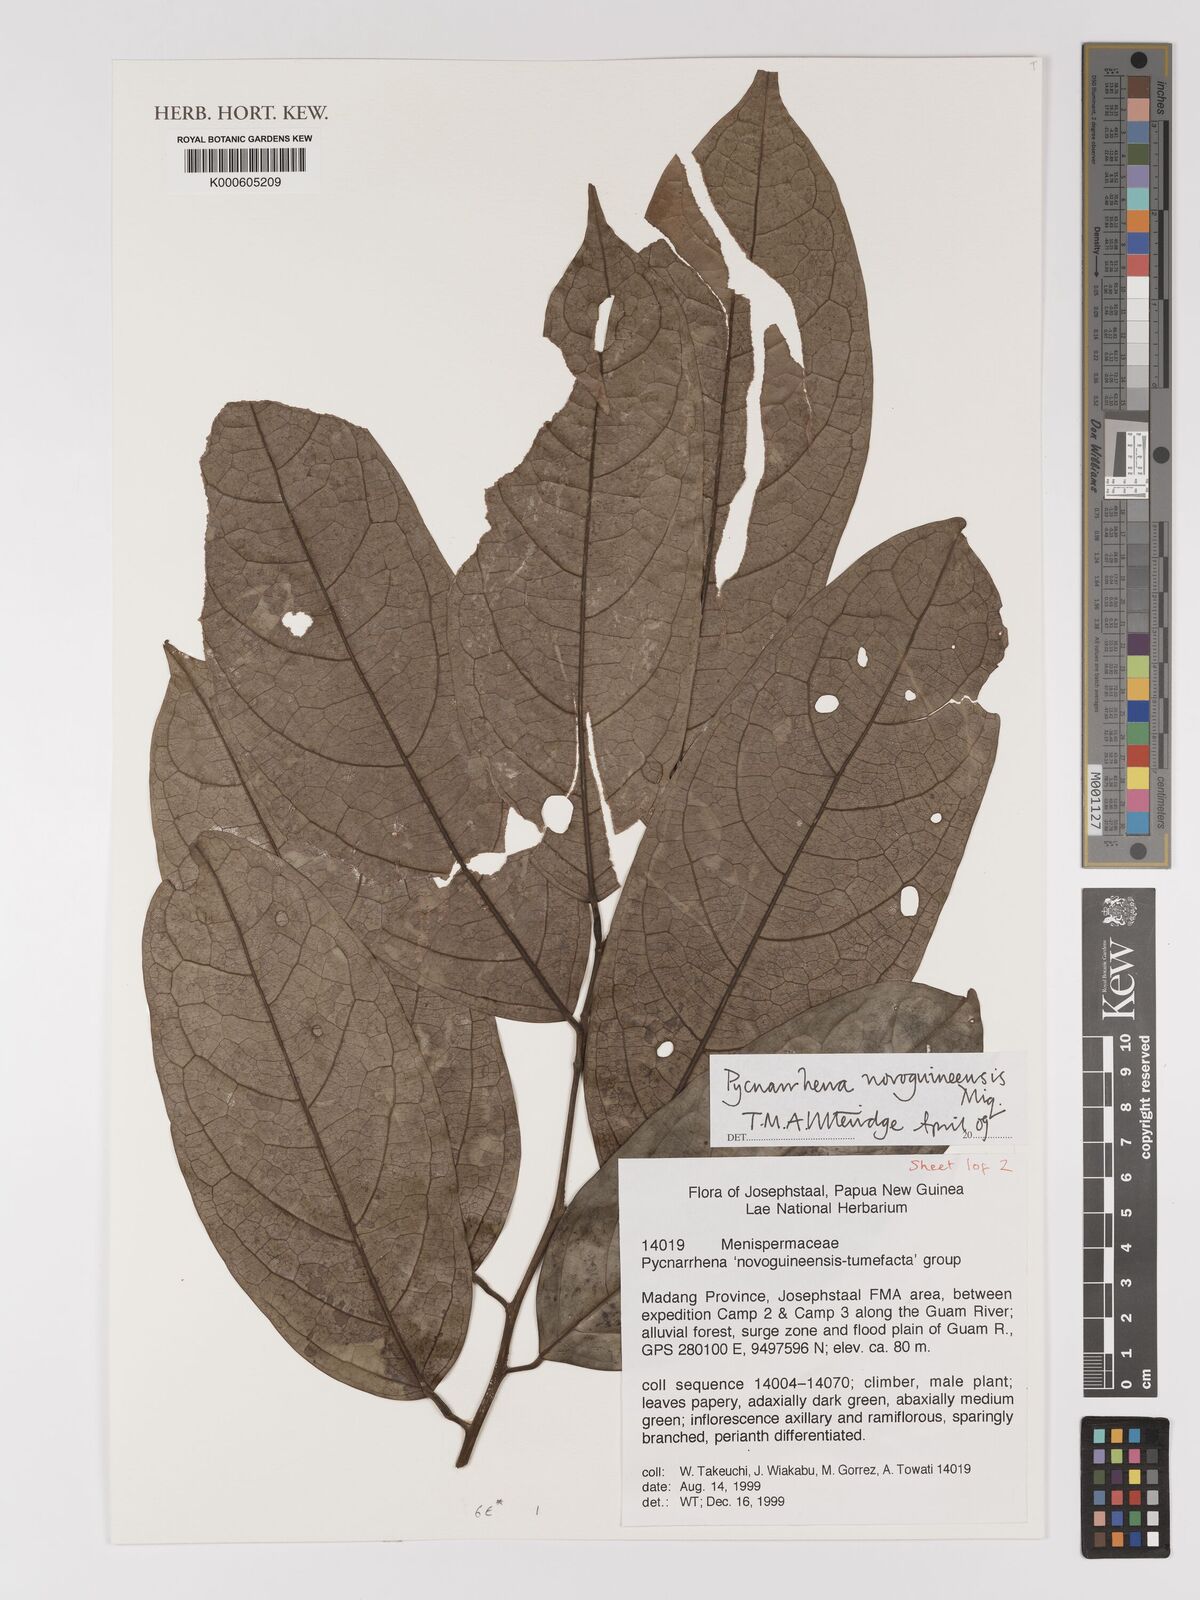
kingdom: Plantae
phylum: Tracheophyta
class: Magnoliopsida
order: Ranunculales
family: Menispermaceae
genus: Pycnarrhena
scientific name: Pycnarrhena novoguineensis
